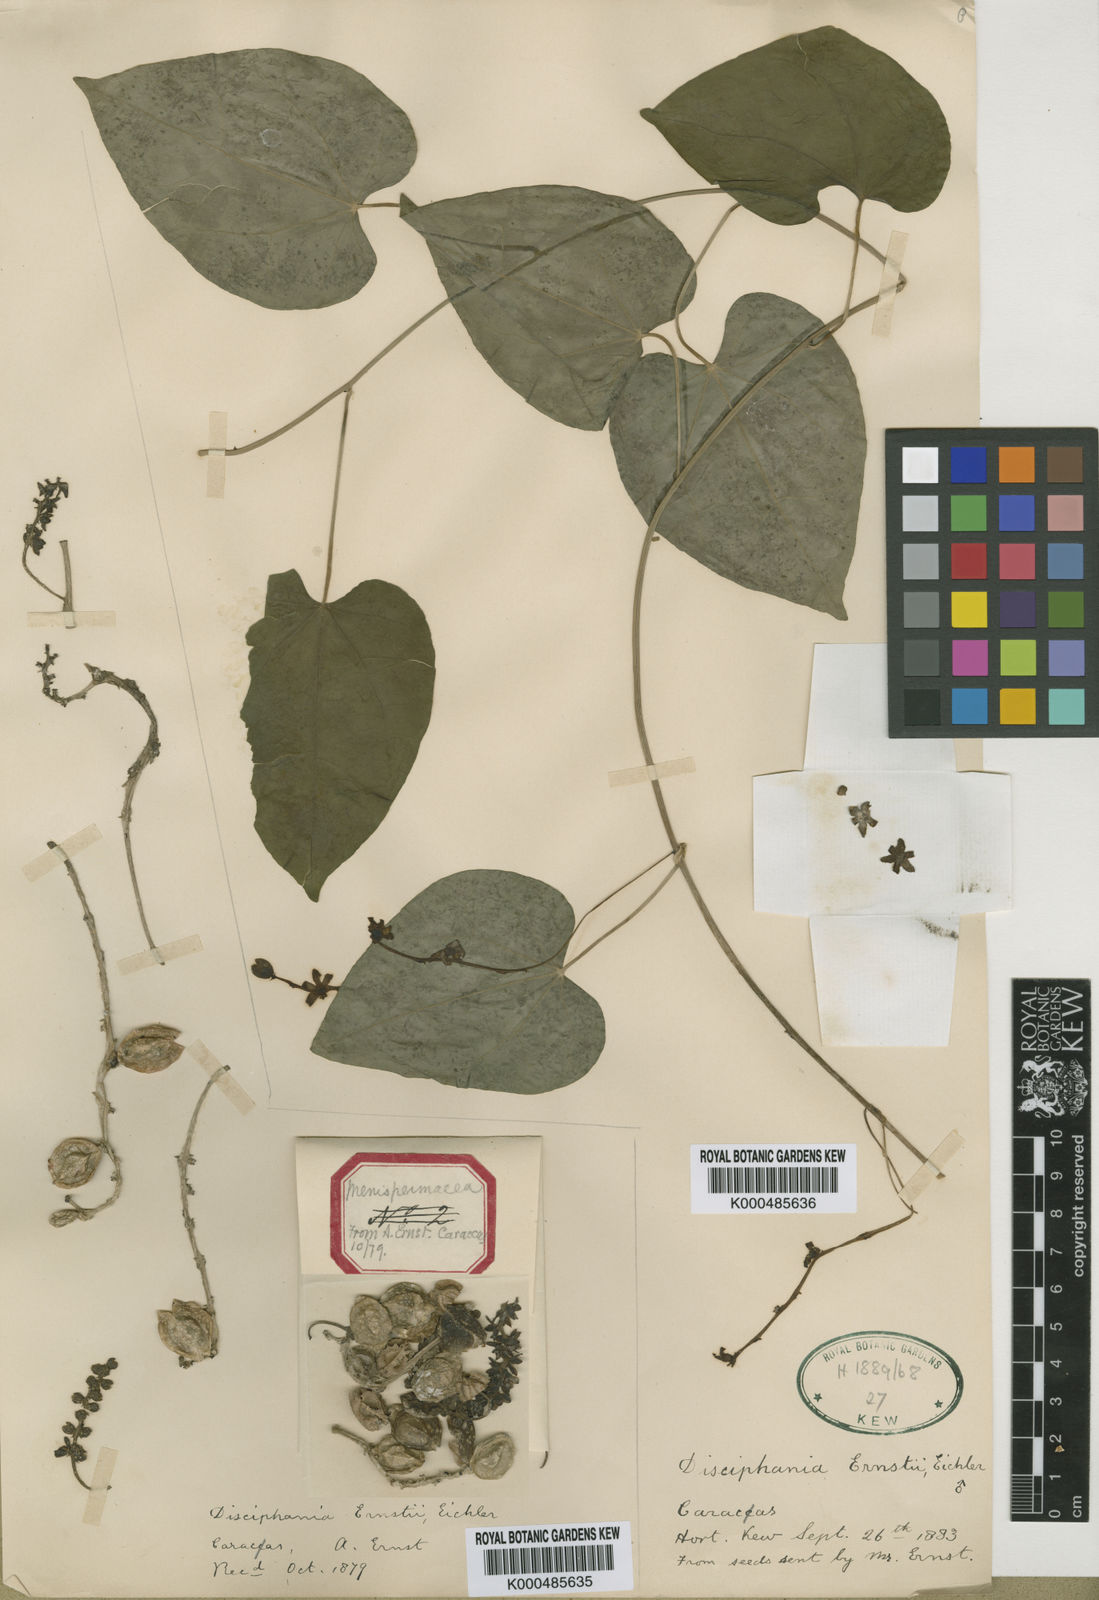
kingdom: Plantae
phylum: Tracheophyta
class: Magnoliopsida
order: Ranunculales
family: Menispermaceae
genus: Disciphania
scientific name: Disciphania ernstii
